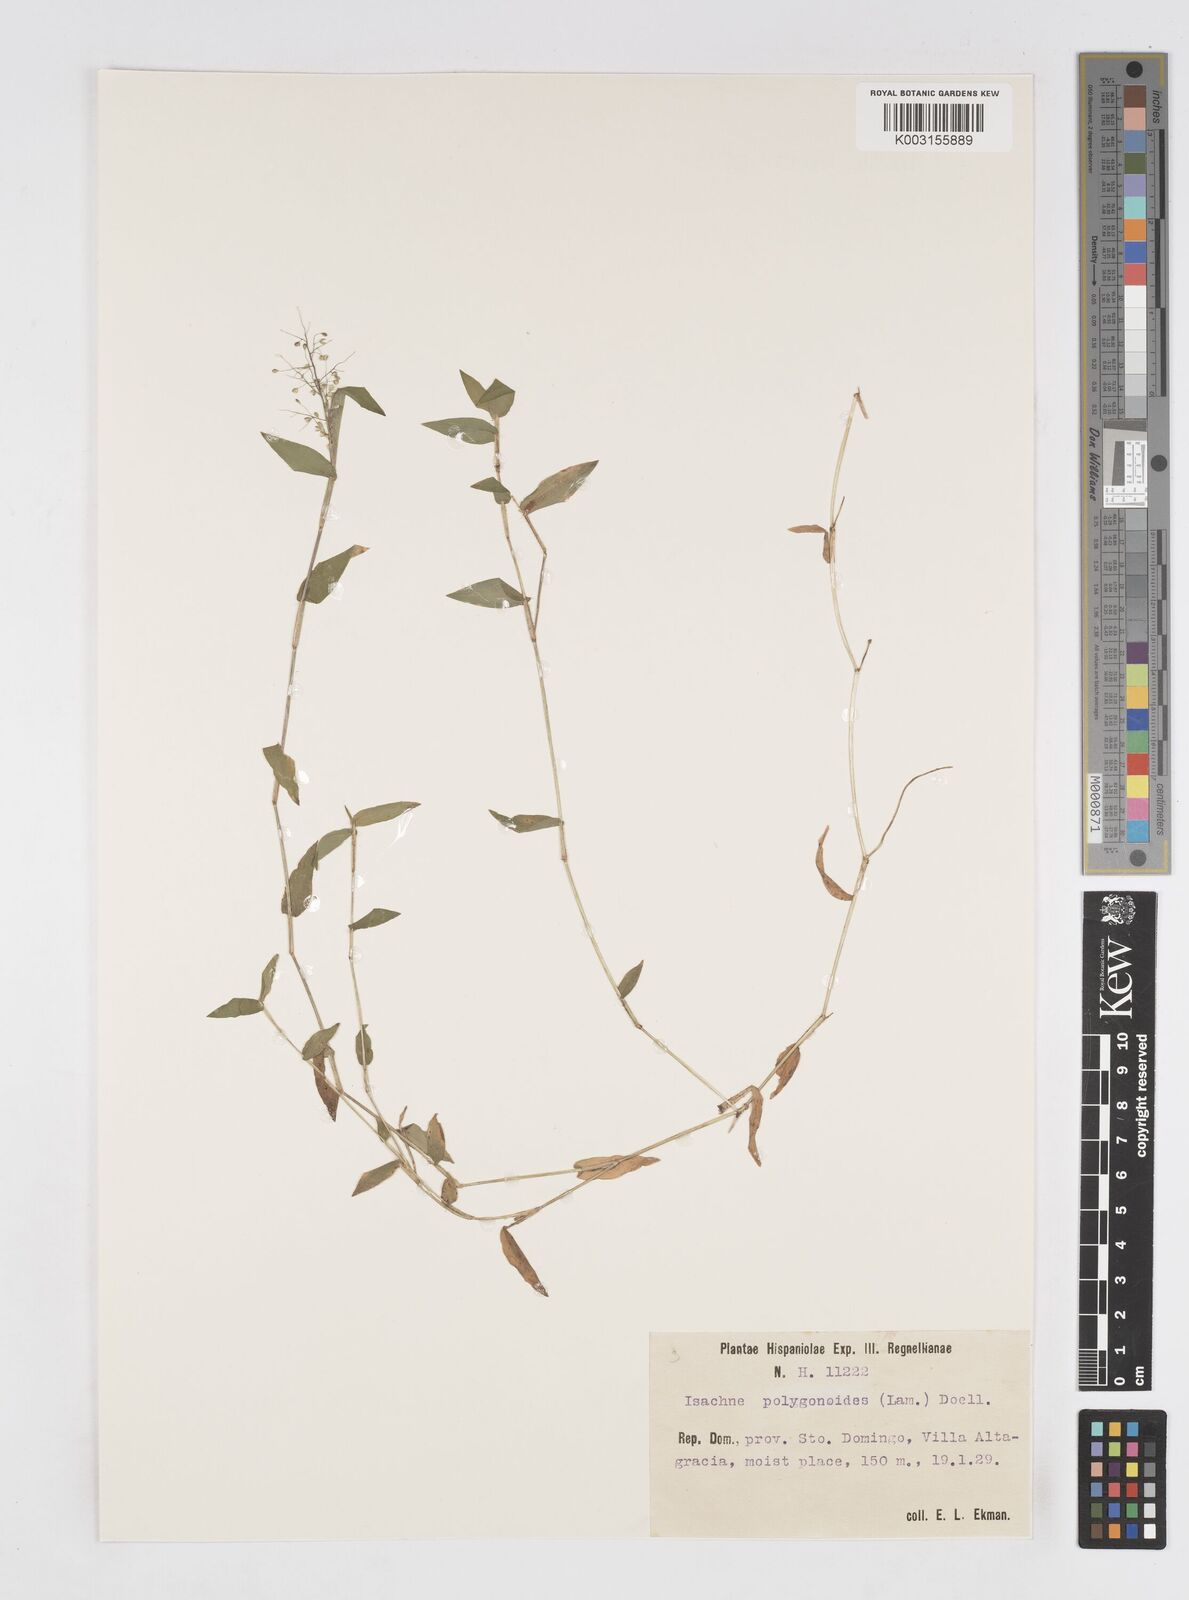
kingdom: Plantae
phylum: Tracheophyta
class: Liliopsida
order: Poales
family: Poaceae
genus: Isachne
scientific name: Isachne polygonoides
